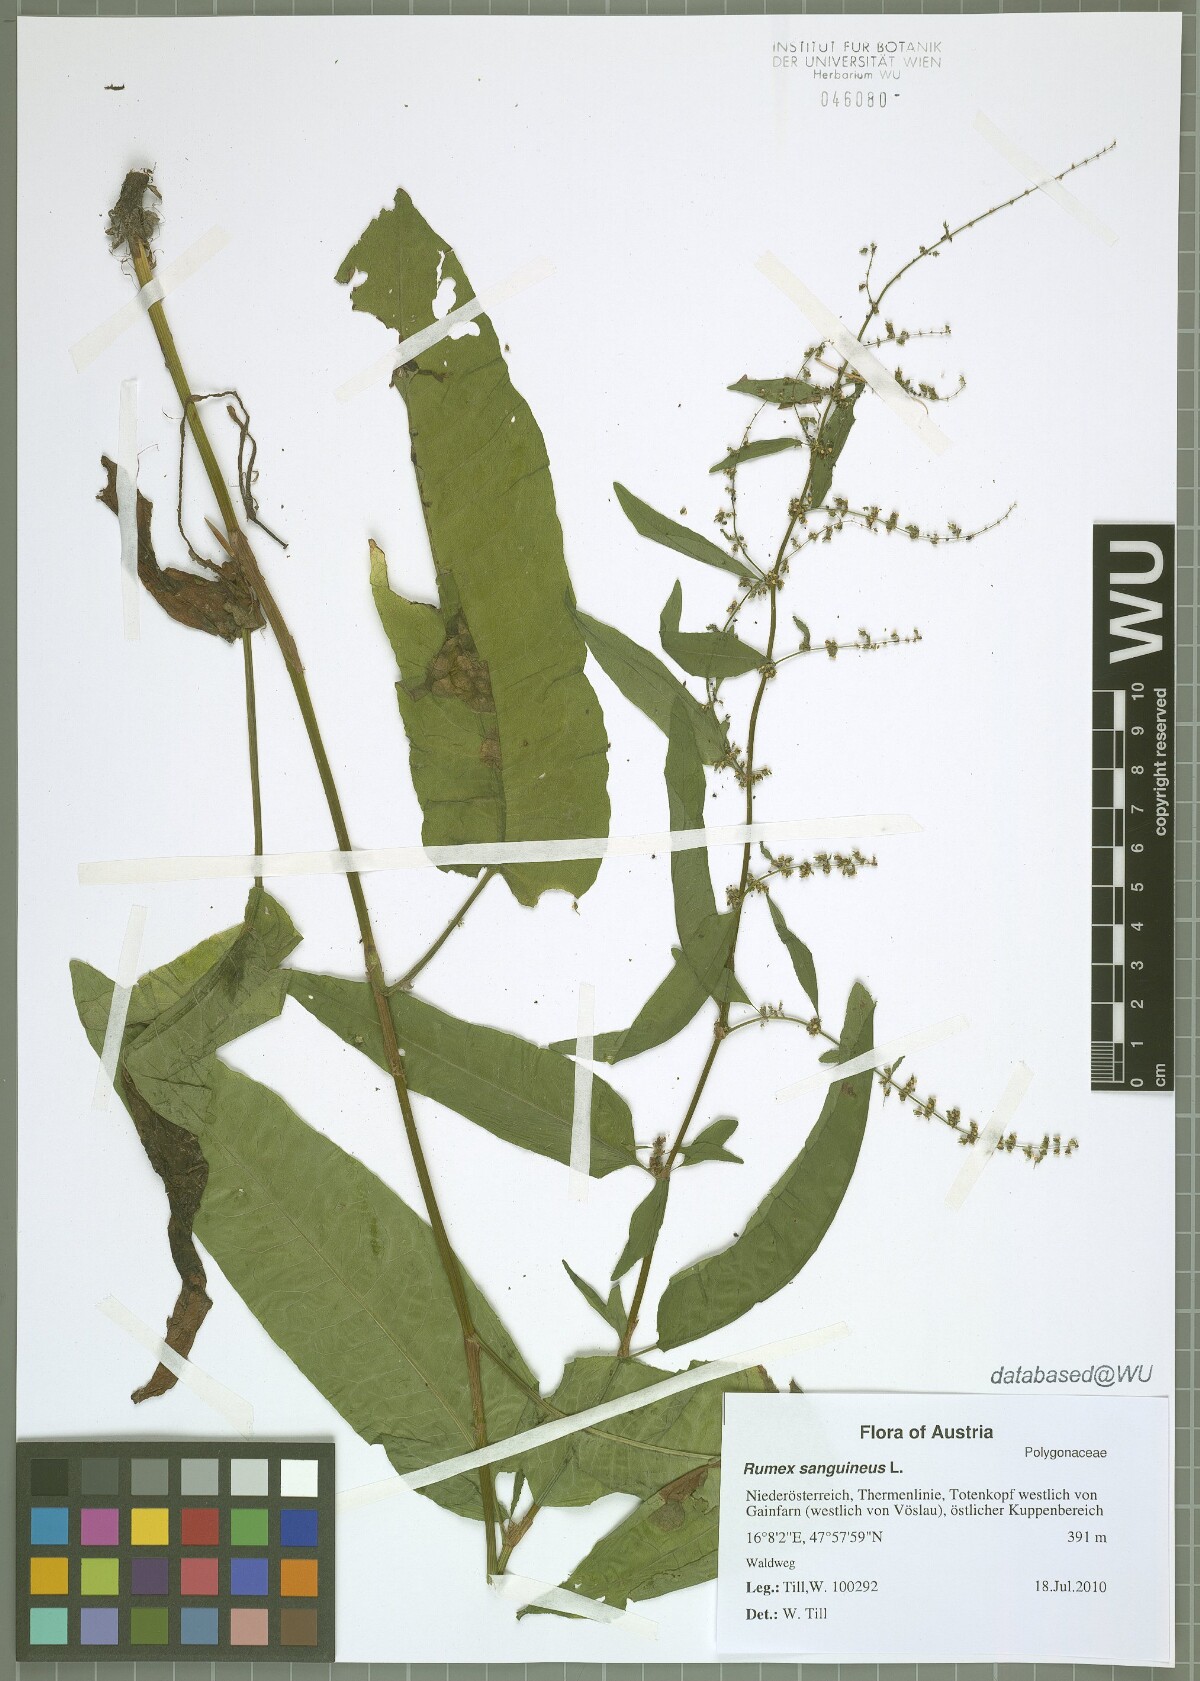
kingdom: Plantae
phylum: Tracheophyta
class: Magnoliopsida
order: Caryophyllales
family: Polygonaceae
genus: Rumex
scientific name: Rumex sanguineus
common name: Wood dock
